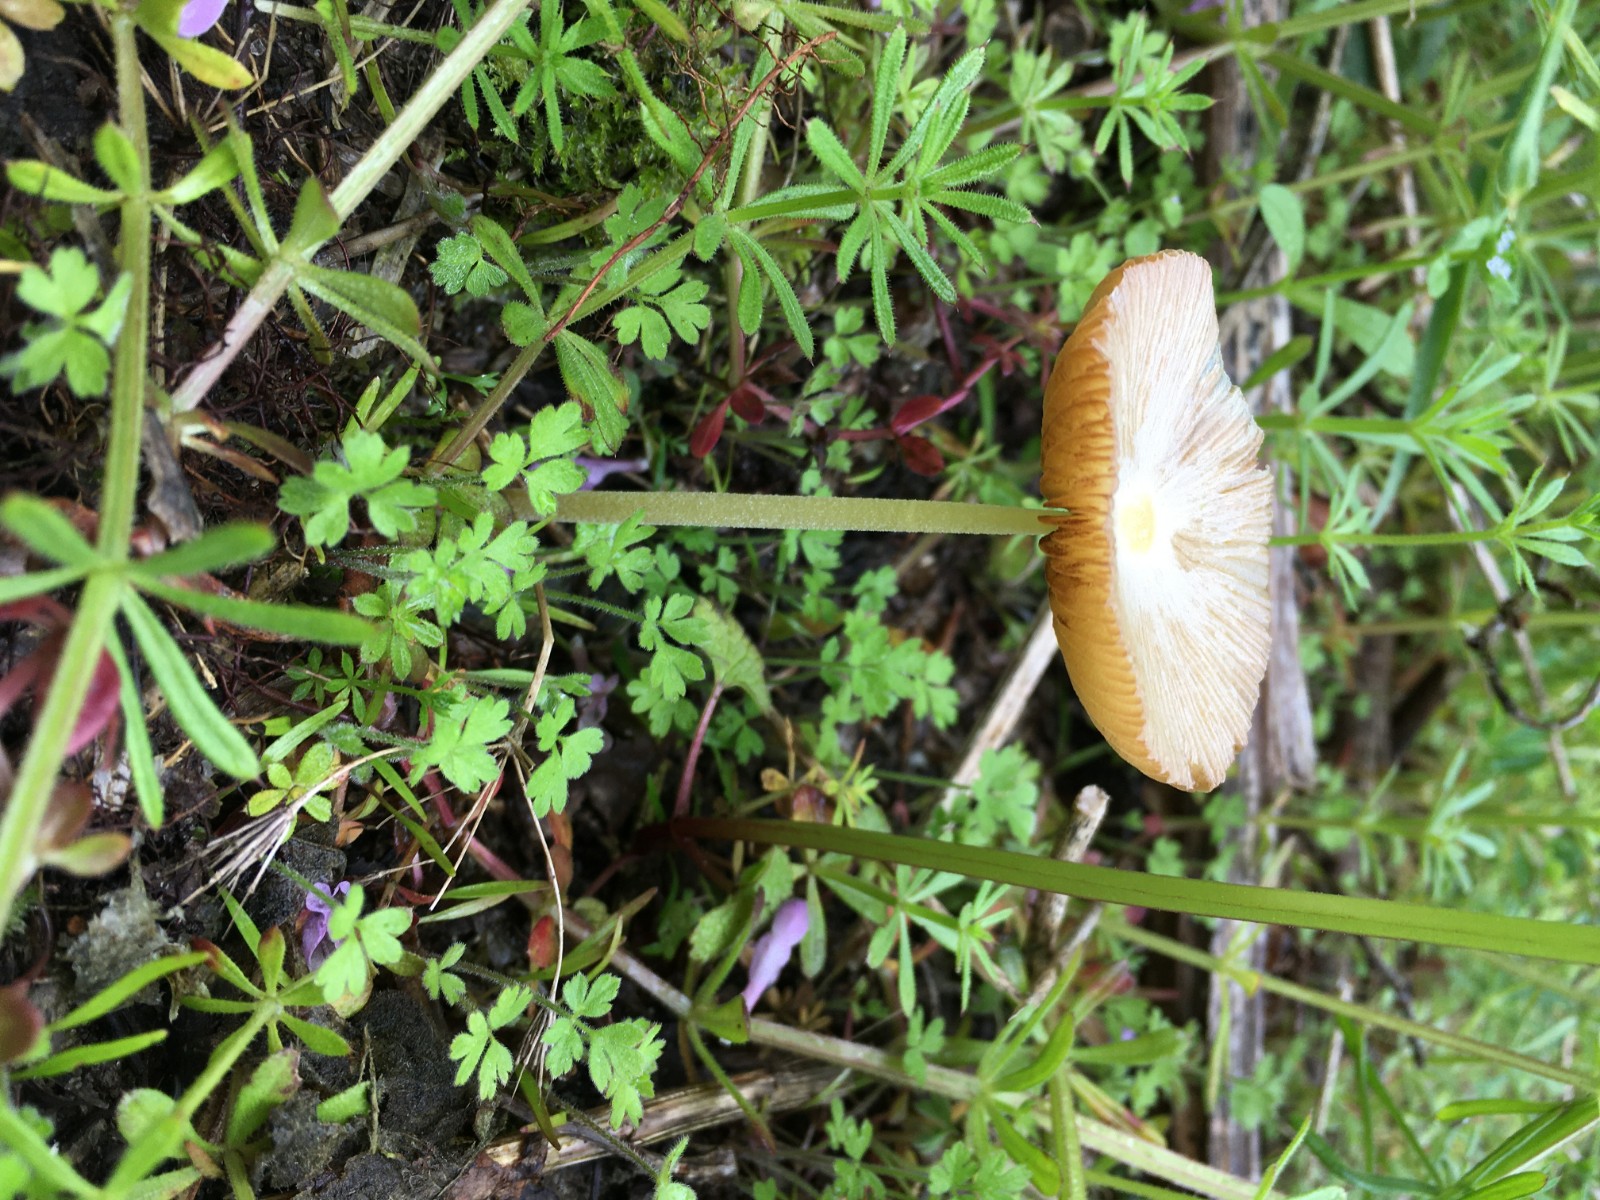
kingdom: Fungi
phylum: Basidiomycota
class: Agaricomycetes
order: Agaricales
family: Bolbitiaceae
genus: Bolbitius
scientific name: Bolbitius titubans
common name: almindelig gulhat
